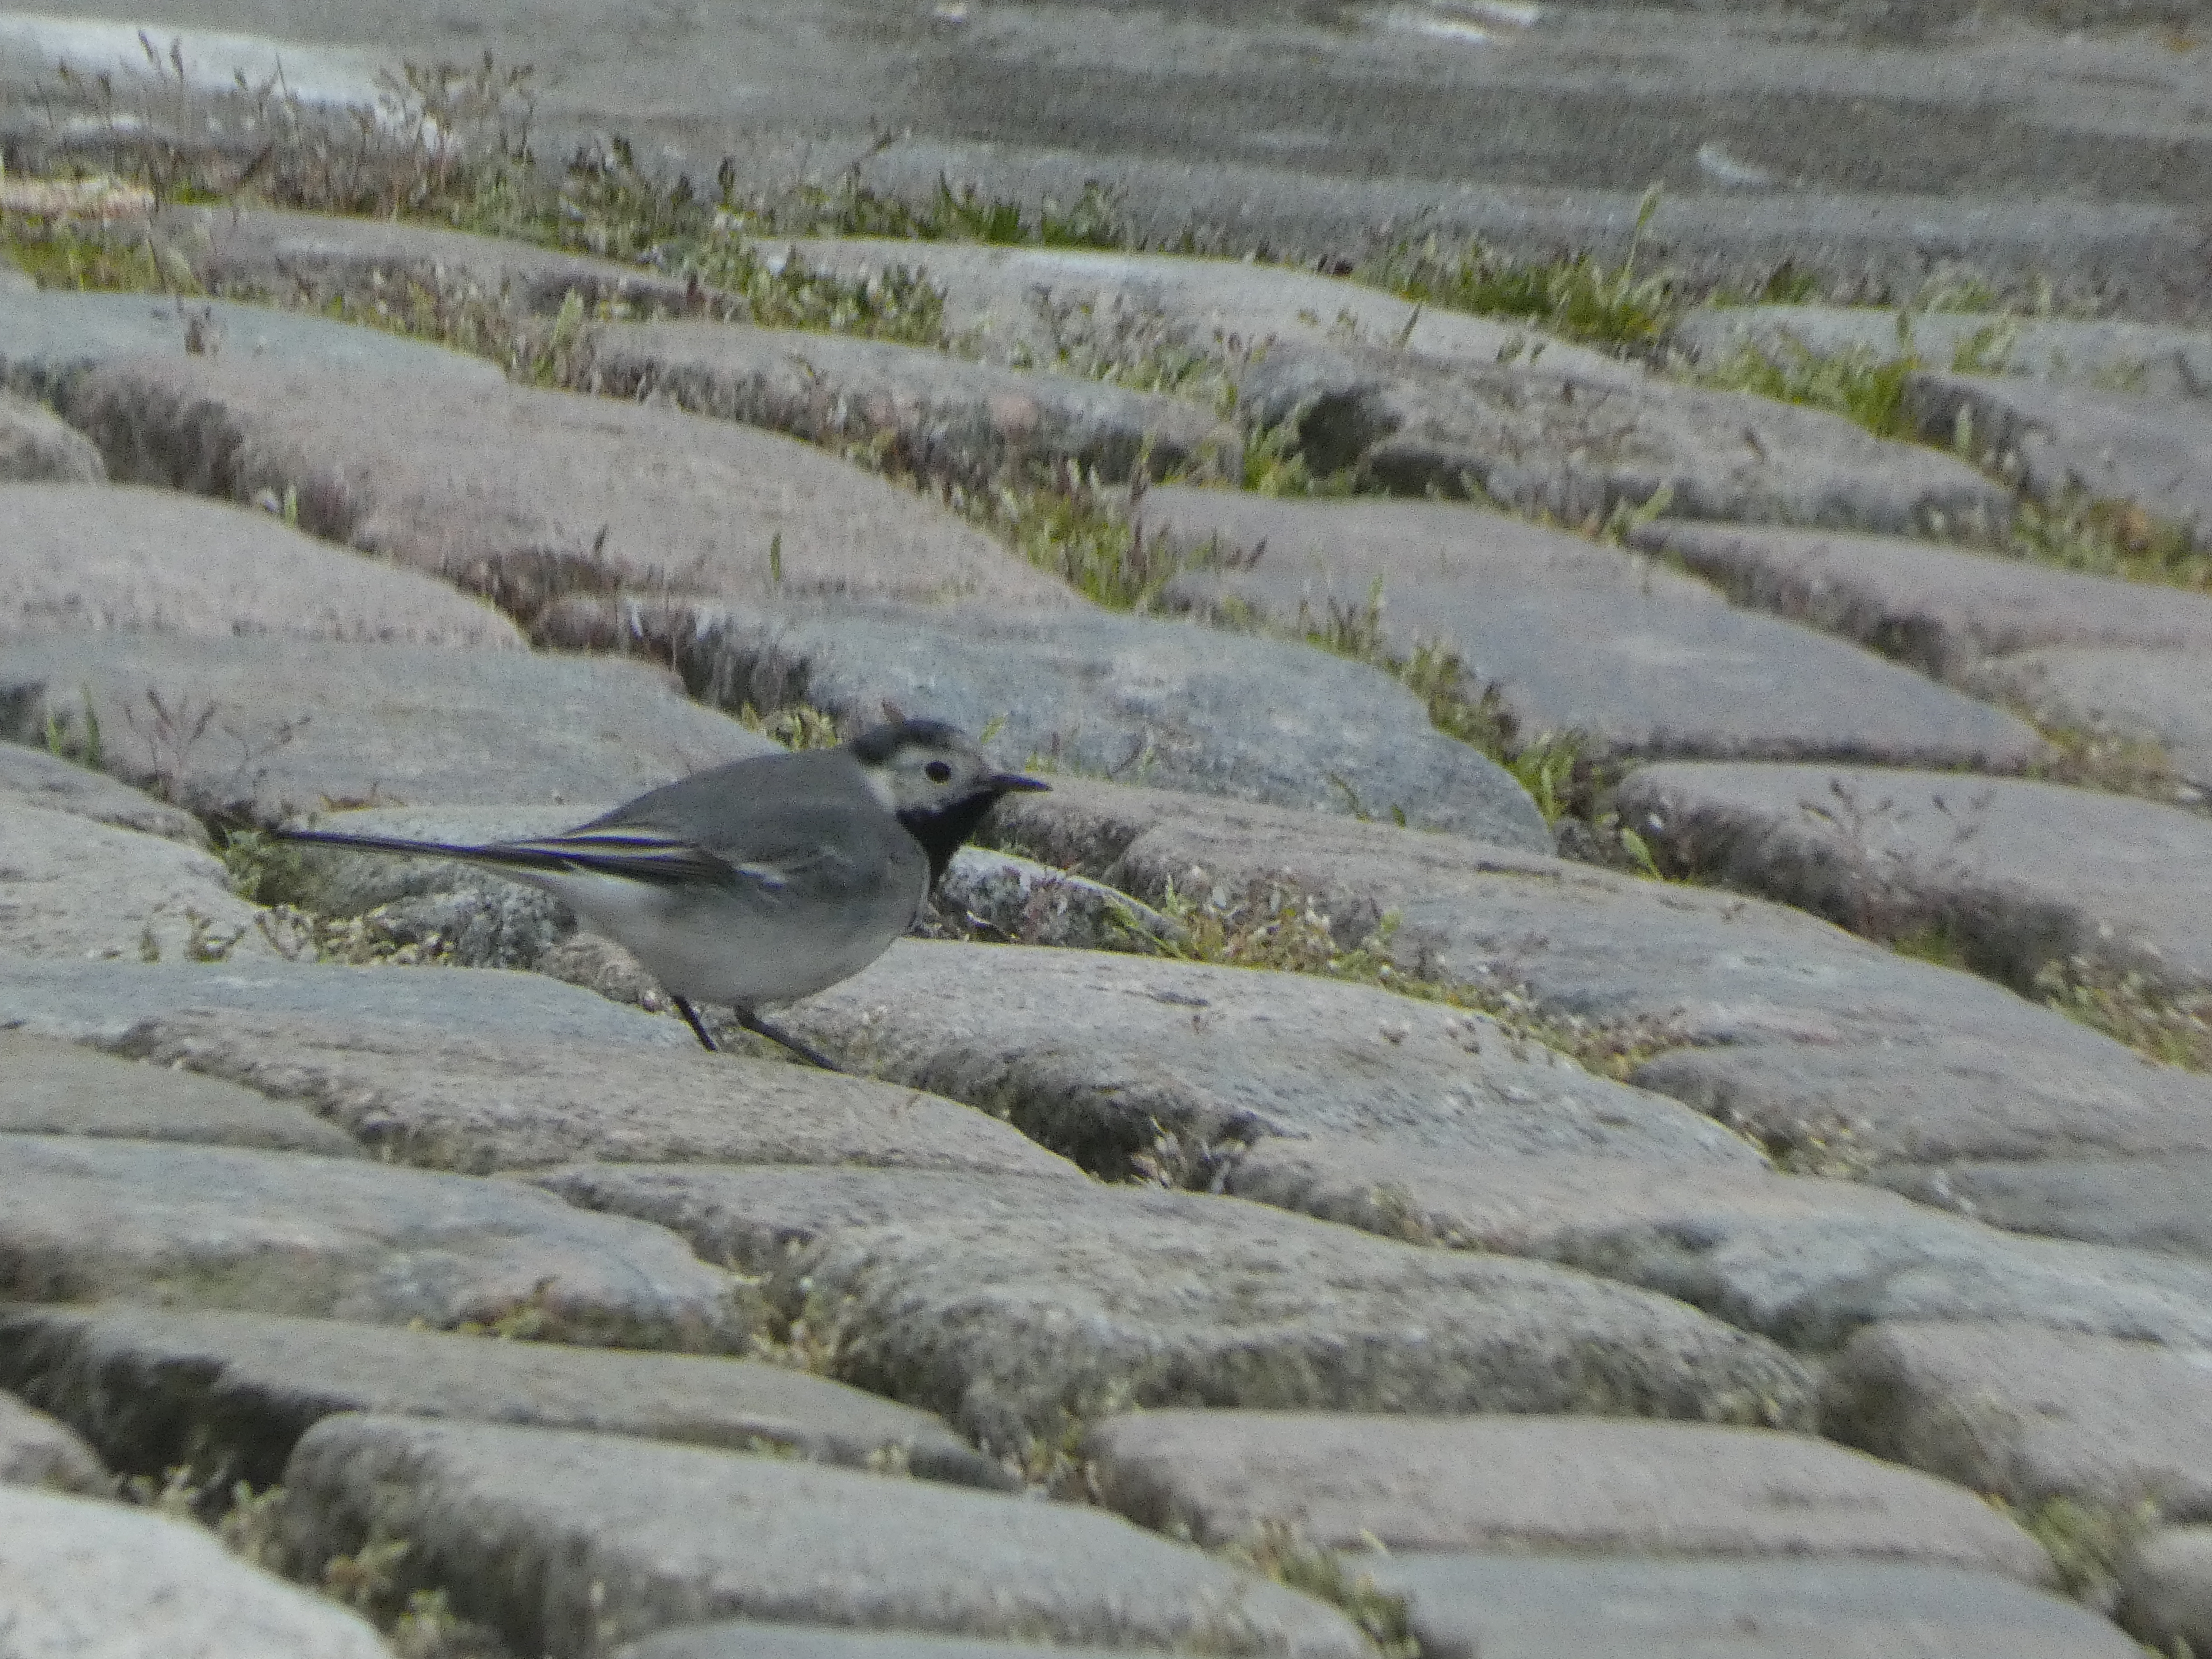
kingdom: Animalia
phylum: Chordata
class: Aves
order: Passeriformes
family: Motacillidae
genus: Motacilla
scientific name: Motacilla alba
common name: Hvid vipstjert
